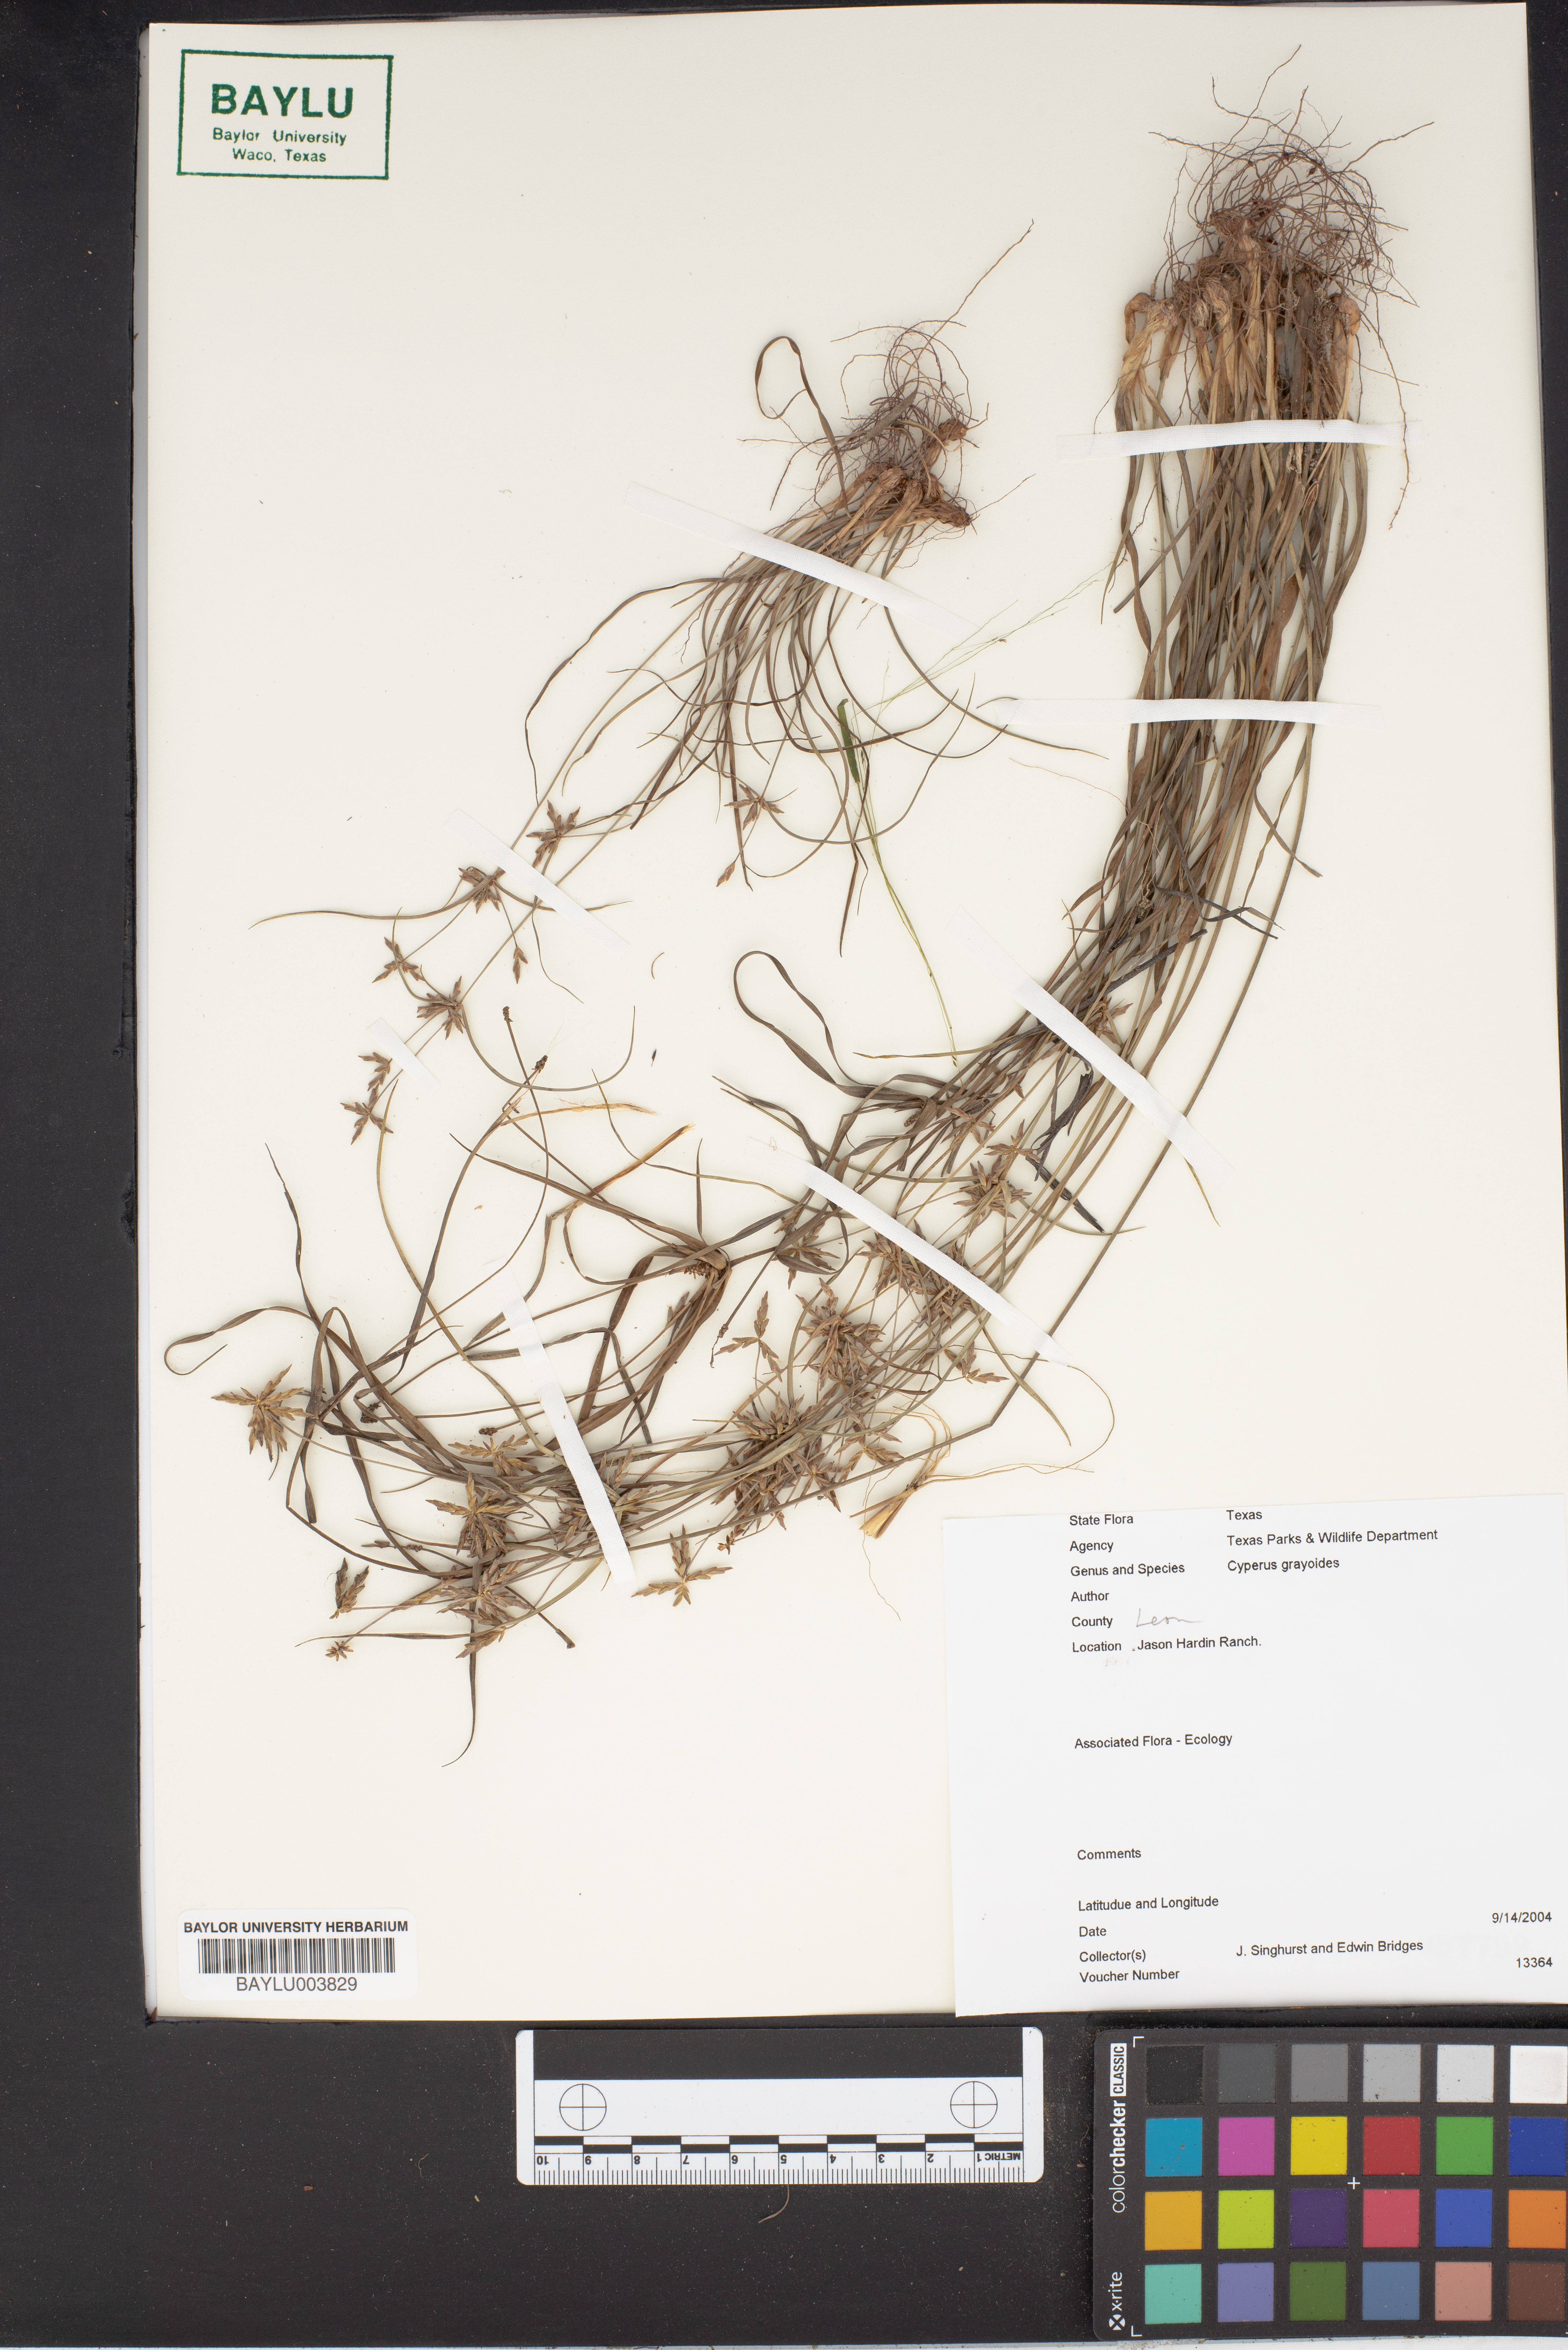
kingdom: Plantae
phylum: Tracheophyta
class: Liliopsida
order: Poales
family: Cyperaceae
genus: Cyperus
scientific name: Cyperus grayioides
